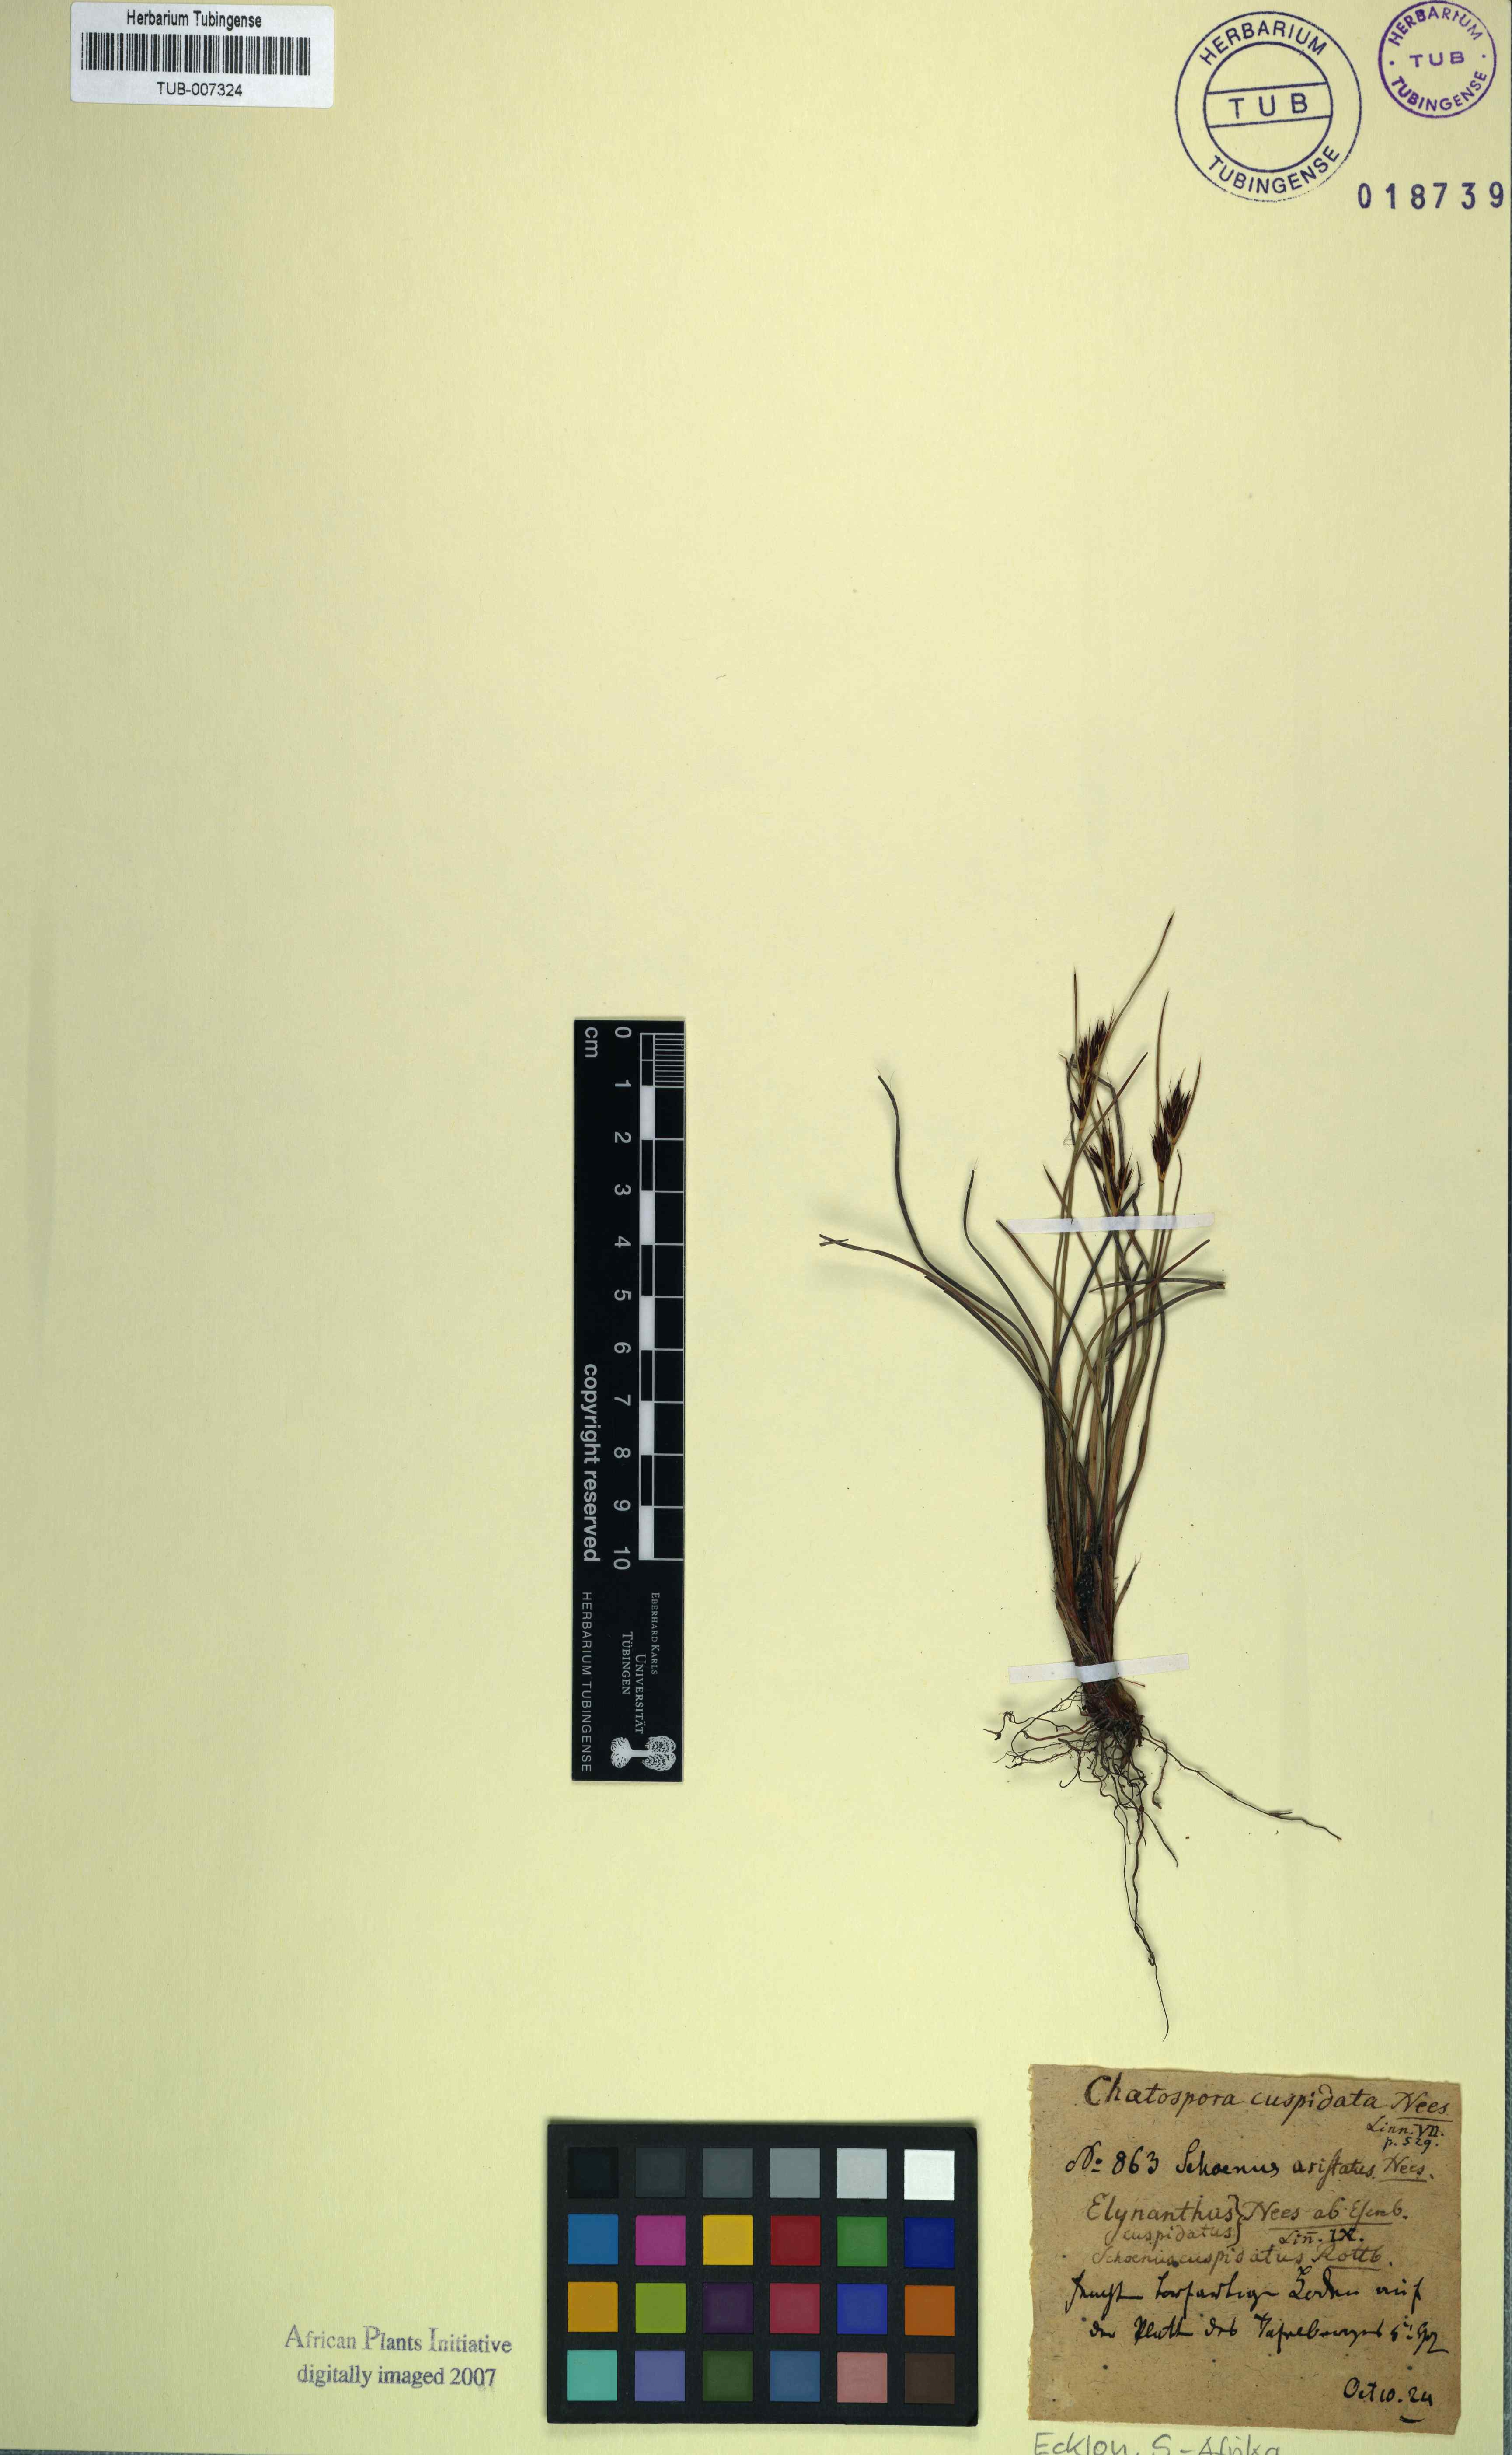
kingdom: Plantae
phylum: Tracheophyta
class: Liliopsida
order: Poales
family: Cyperaceae
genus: Schoenus
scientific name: Schoenus cuspidatus
